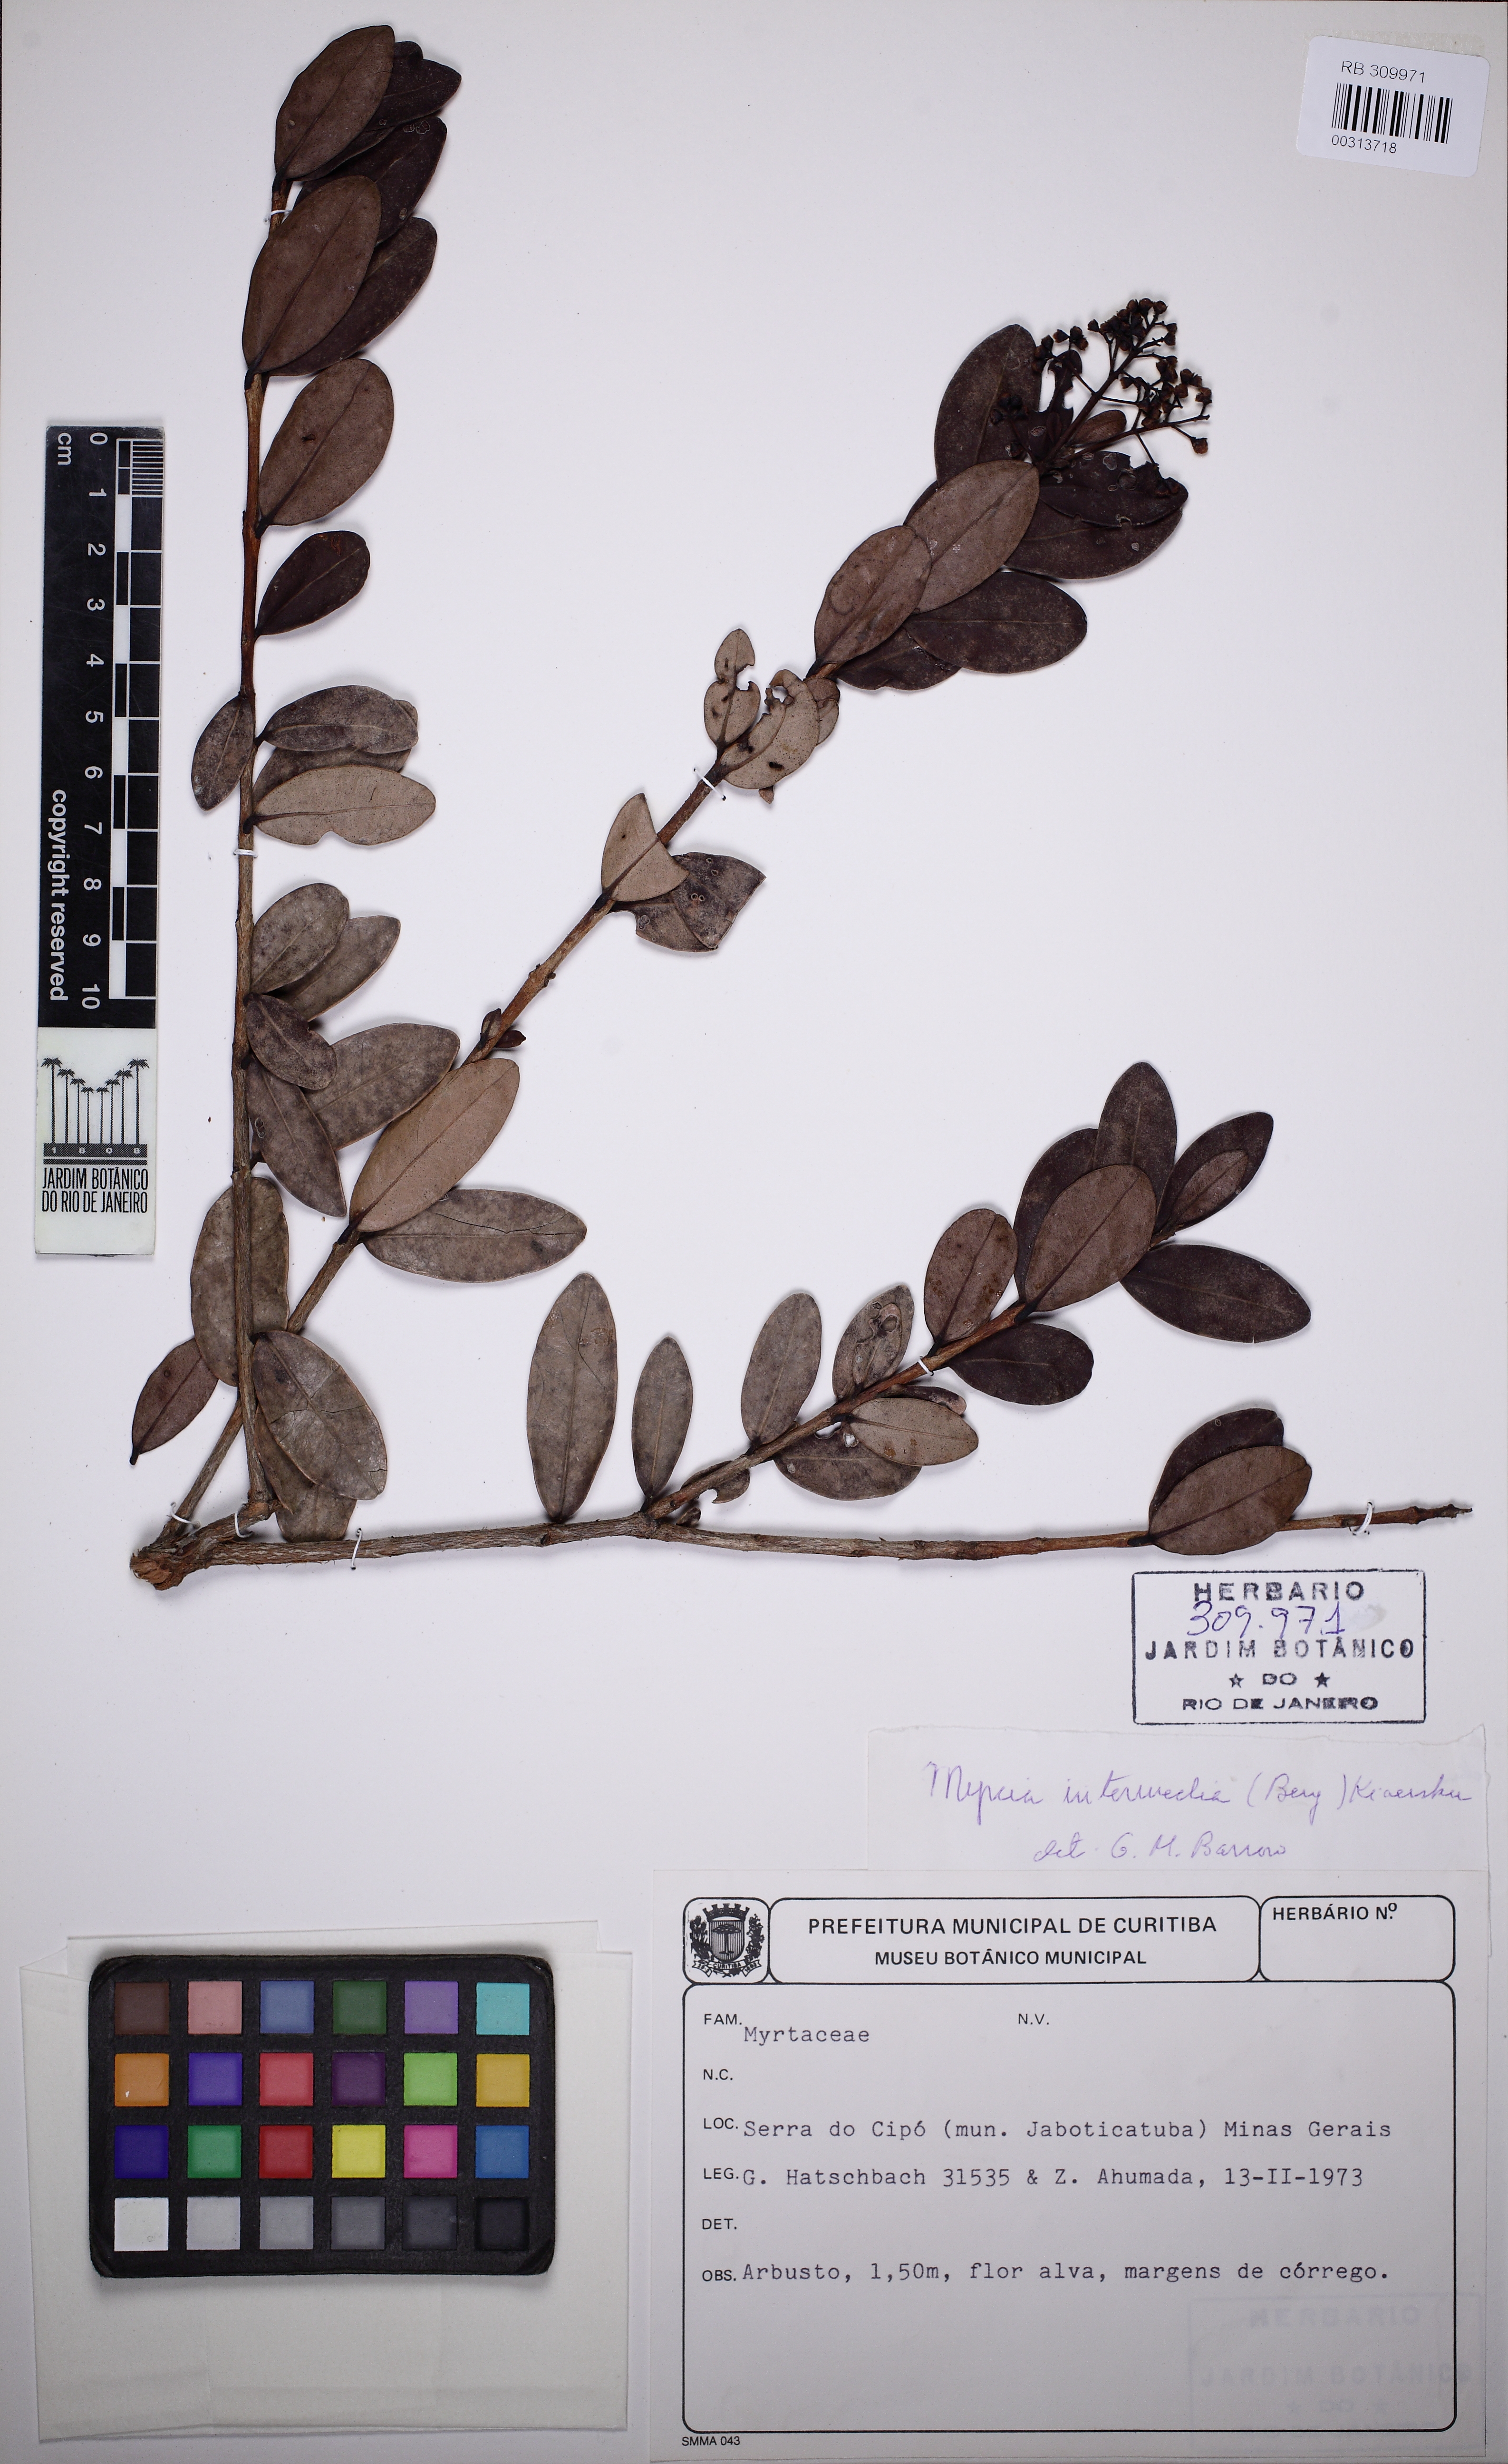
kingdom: Plantae
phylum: Tracheophyta
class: Magnoliopsida
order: Myrtales
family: Myrtaceae
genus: Myrcia
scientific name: Myrcia guianensis
